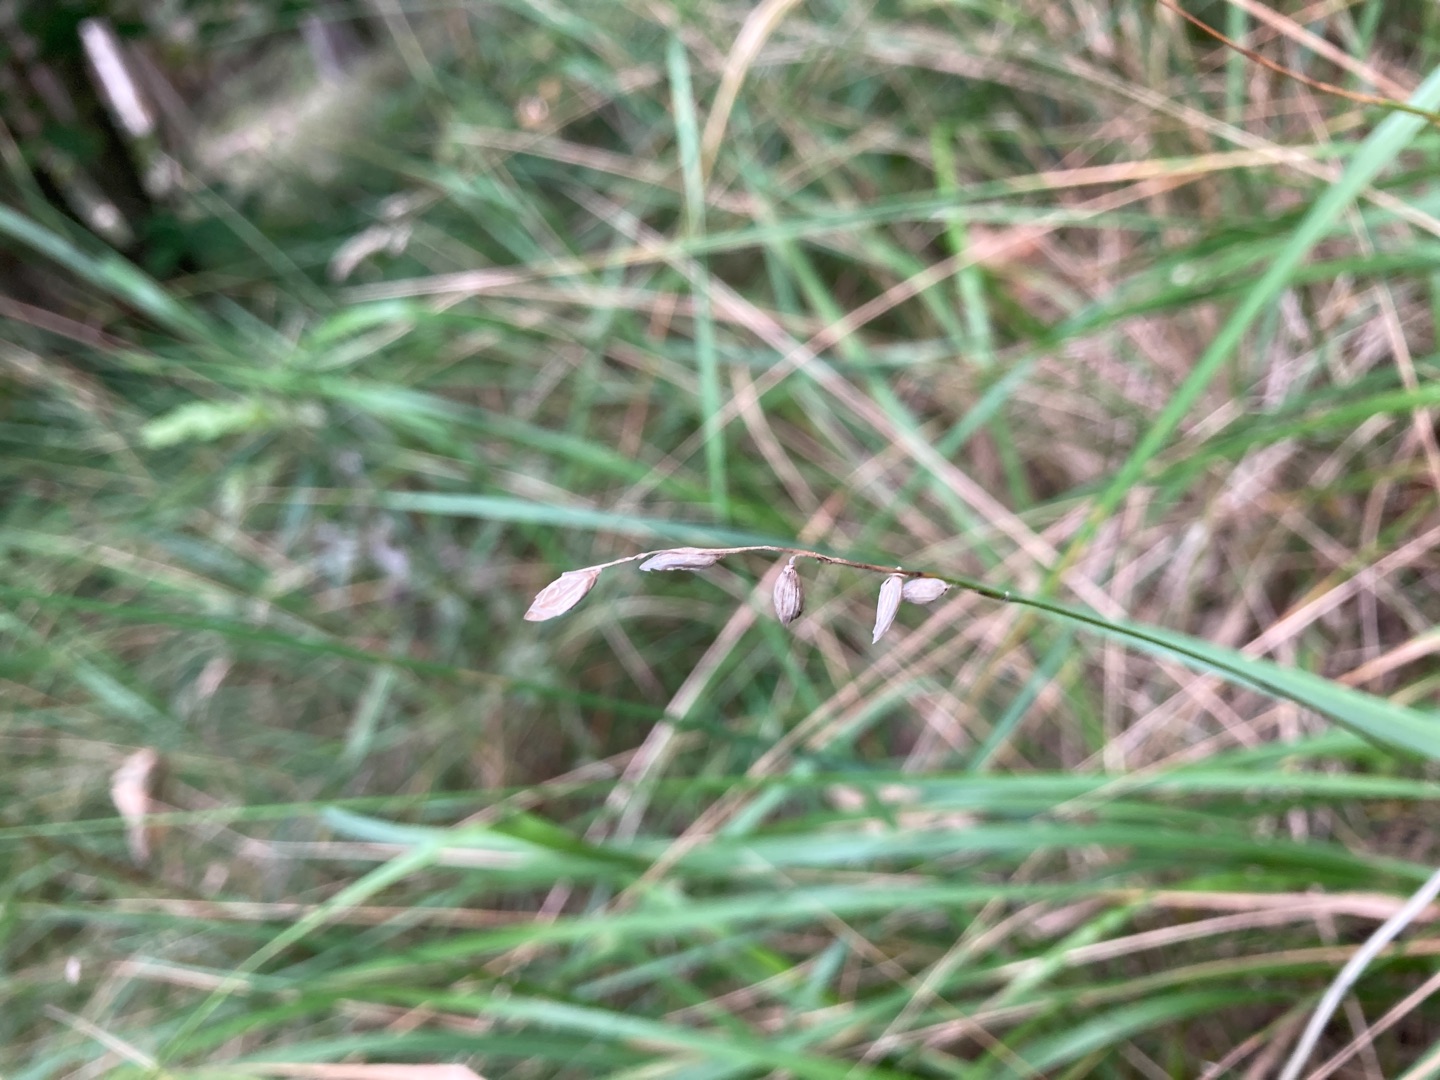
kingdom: Plantae
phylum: Tracheophyta
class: Liliopsida
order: Poales
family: Poaceae
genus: Melica
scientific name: Melica nutans
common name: Nikkende flitteraks
